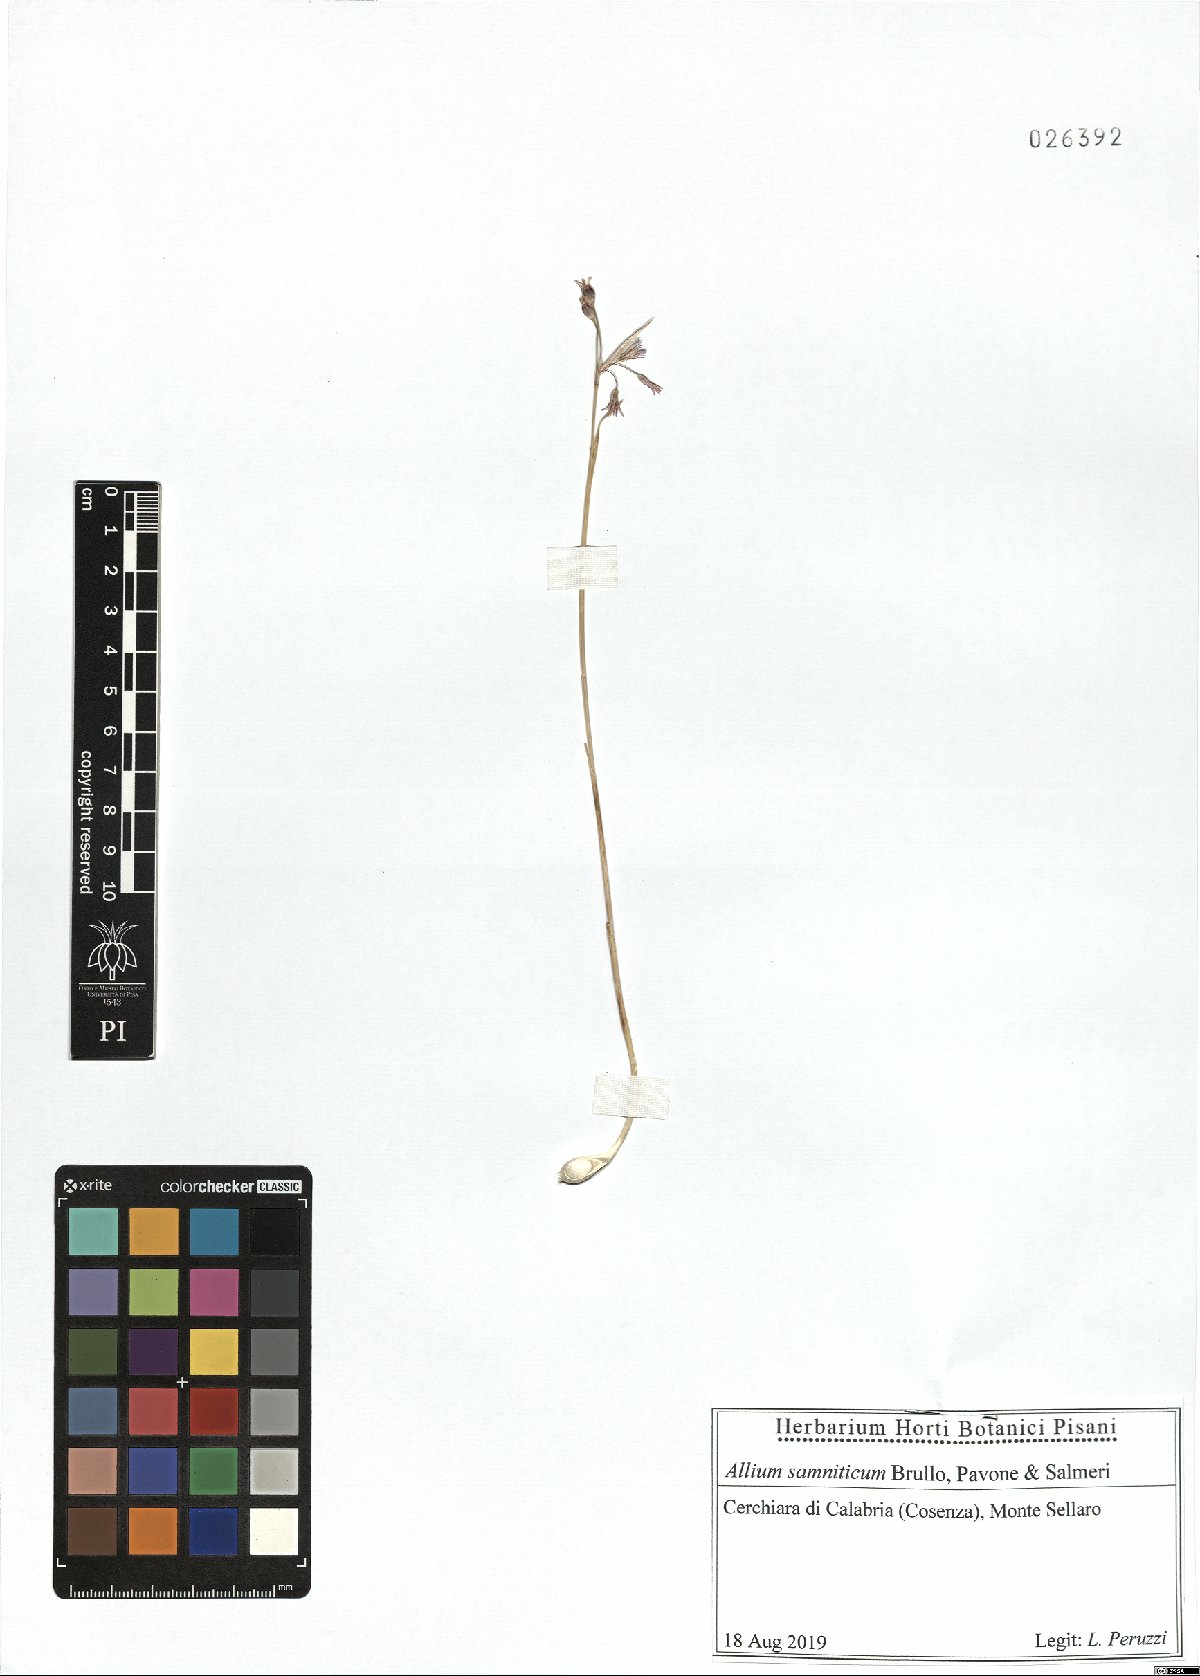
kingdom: Plantae
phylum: Tracheophyta
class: Liliopsida
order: Asparagales
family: Amaryllidaceae
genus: Allium
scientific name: Allium samniticum
